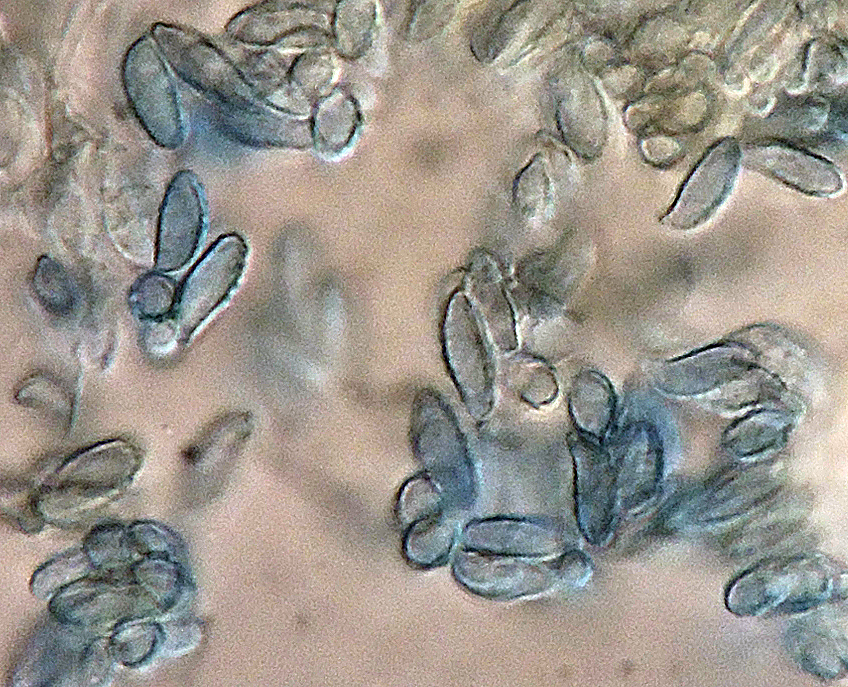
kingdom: Fungi
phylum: Basidiomycota
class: Agaricomycetes
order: Gomphales
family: Gomphaceae
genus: Ramaria
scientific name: Ramaria subbotrytis
